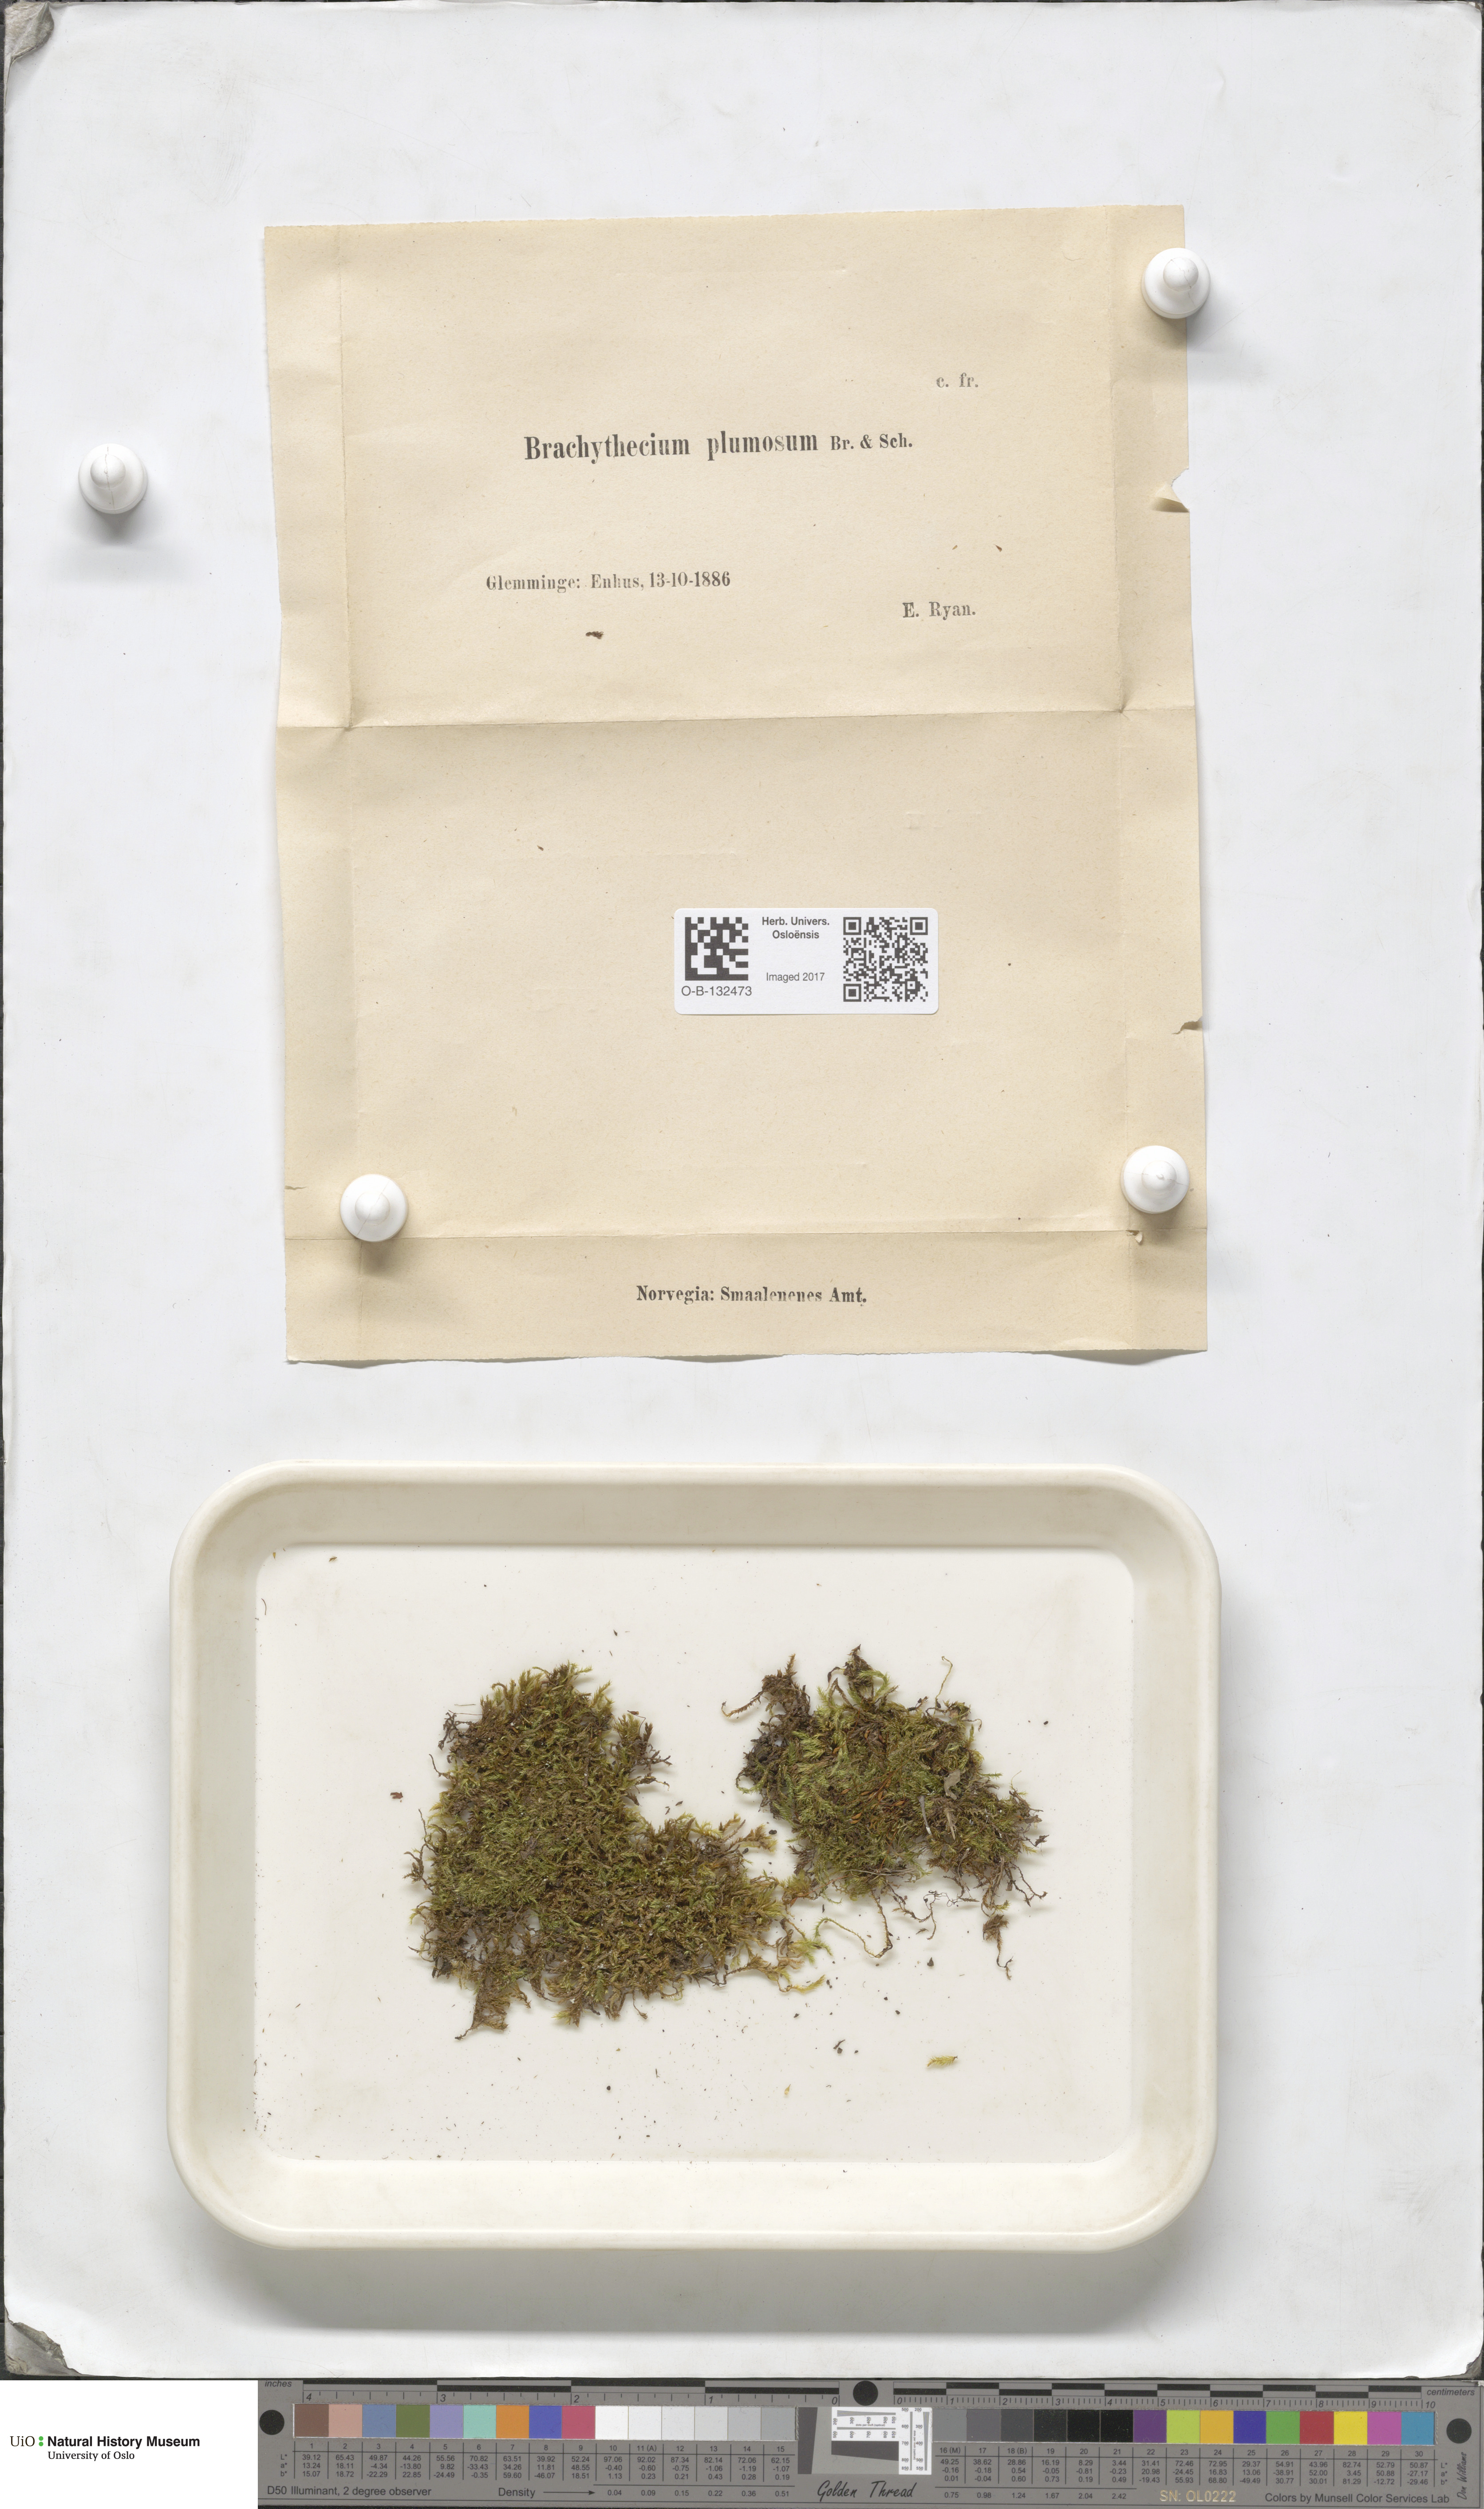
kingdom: Plantae
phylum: Bryophyta
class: Bryopsida
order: Hypnales
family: Brachytheciaceae
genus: Sciuro-hypnum
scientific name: Sciuro-hypnum plumosum
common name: Rusty feather-moss
